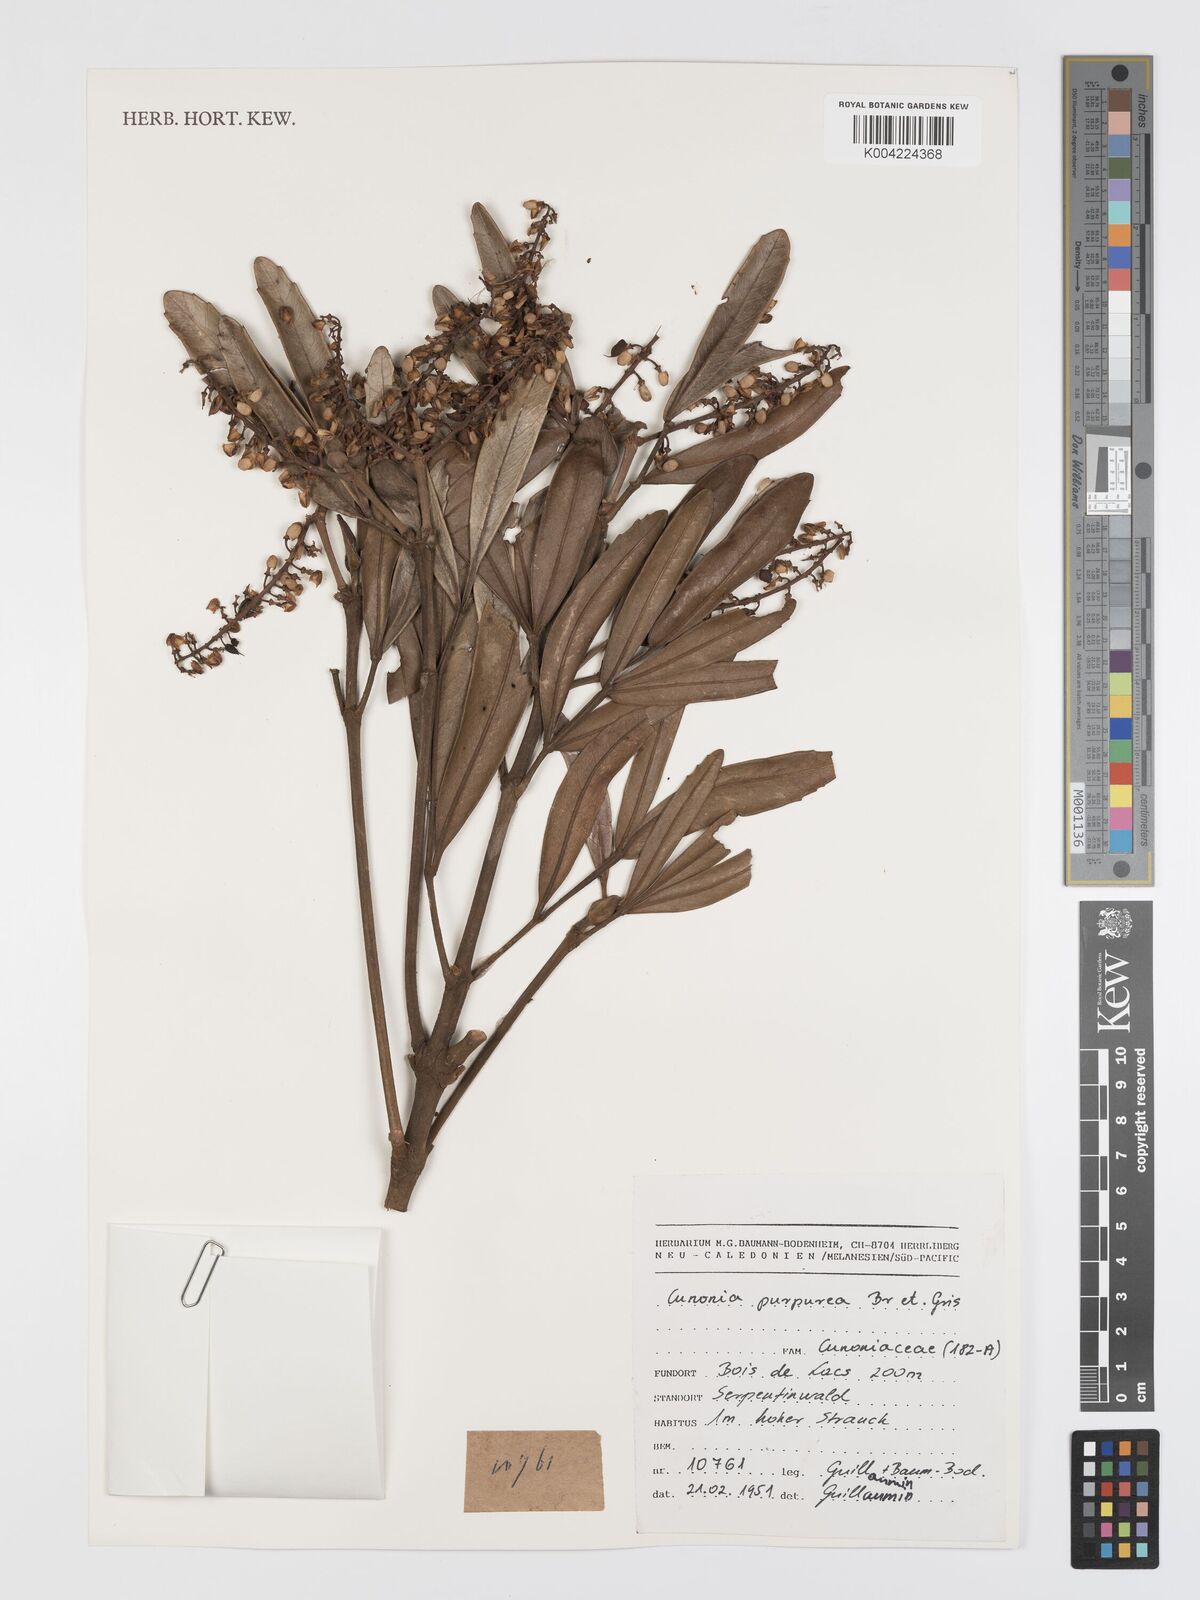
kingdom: Plantae
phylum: Tracheophyta
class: Magnoliopsida
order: Oxalidales
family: Cunoniaceae
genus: Cunonia
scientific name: Cunonia purpurea
